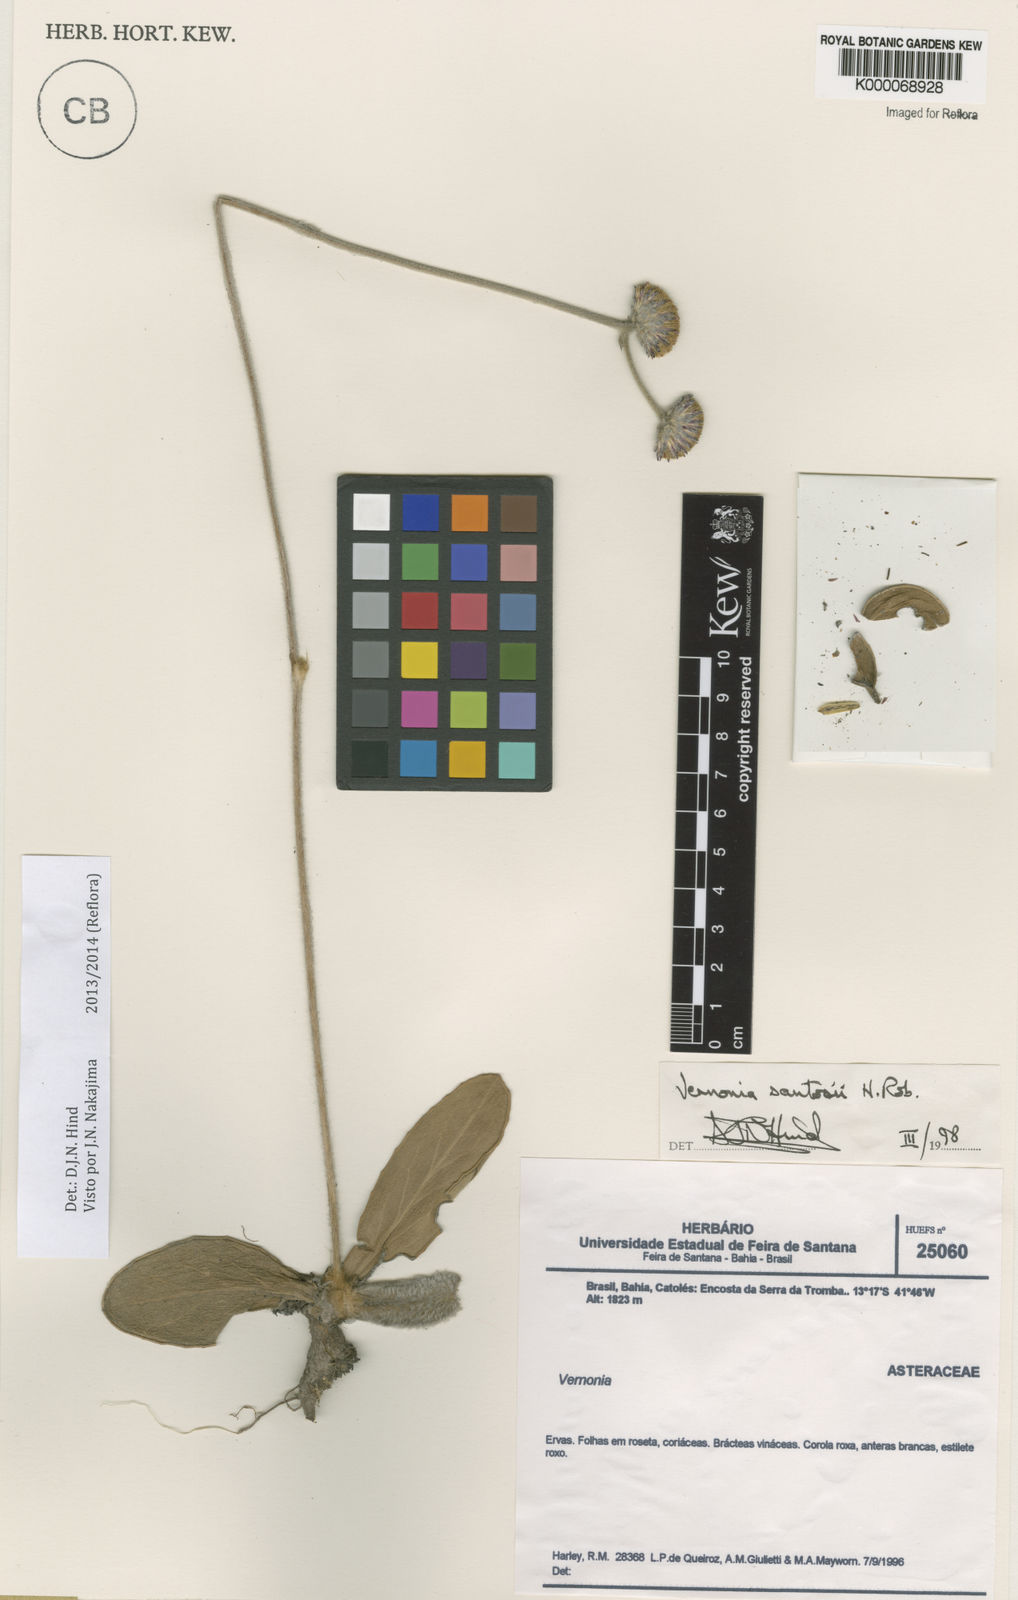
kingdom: Plantae
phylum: Tracheophyta
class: Magnoliopsida
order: Asterales
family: Asteraceae
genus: Lessingianthus
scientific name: Lessingianthus santosii
